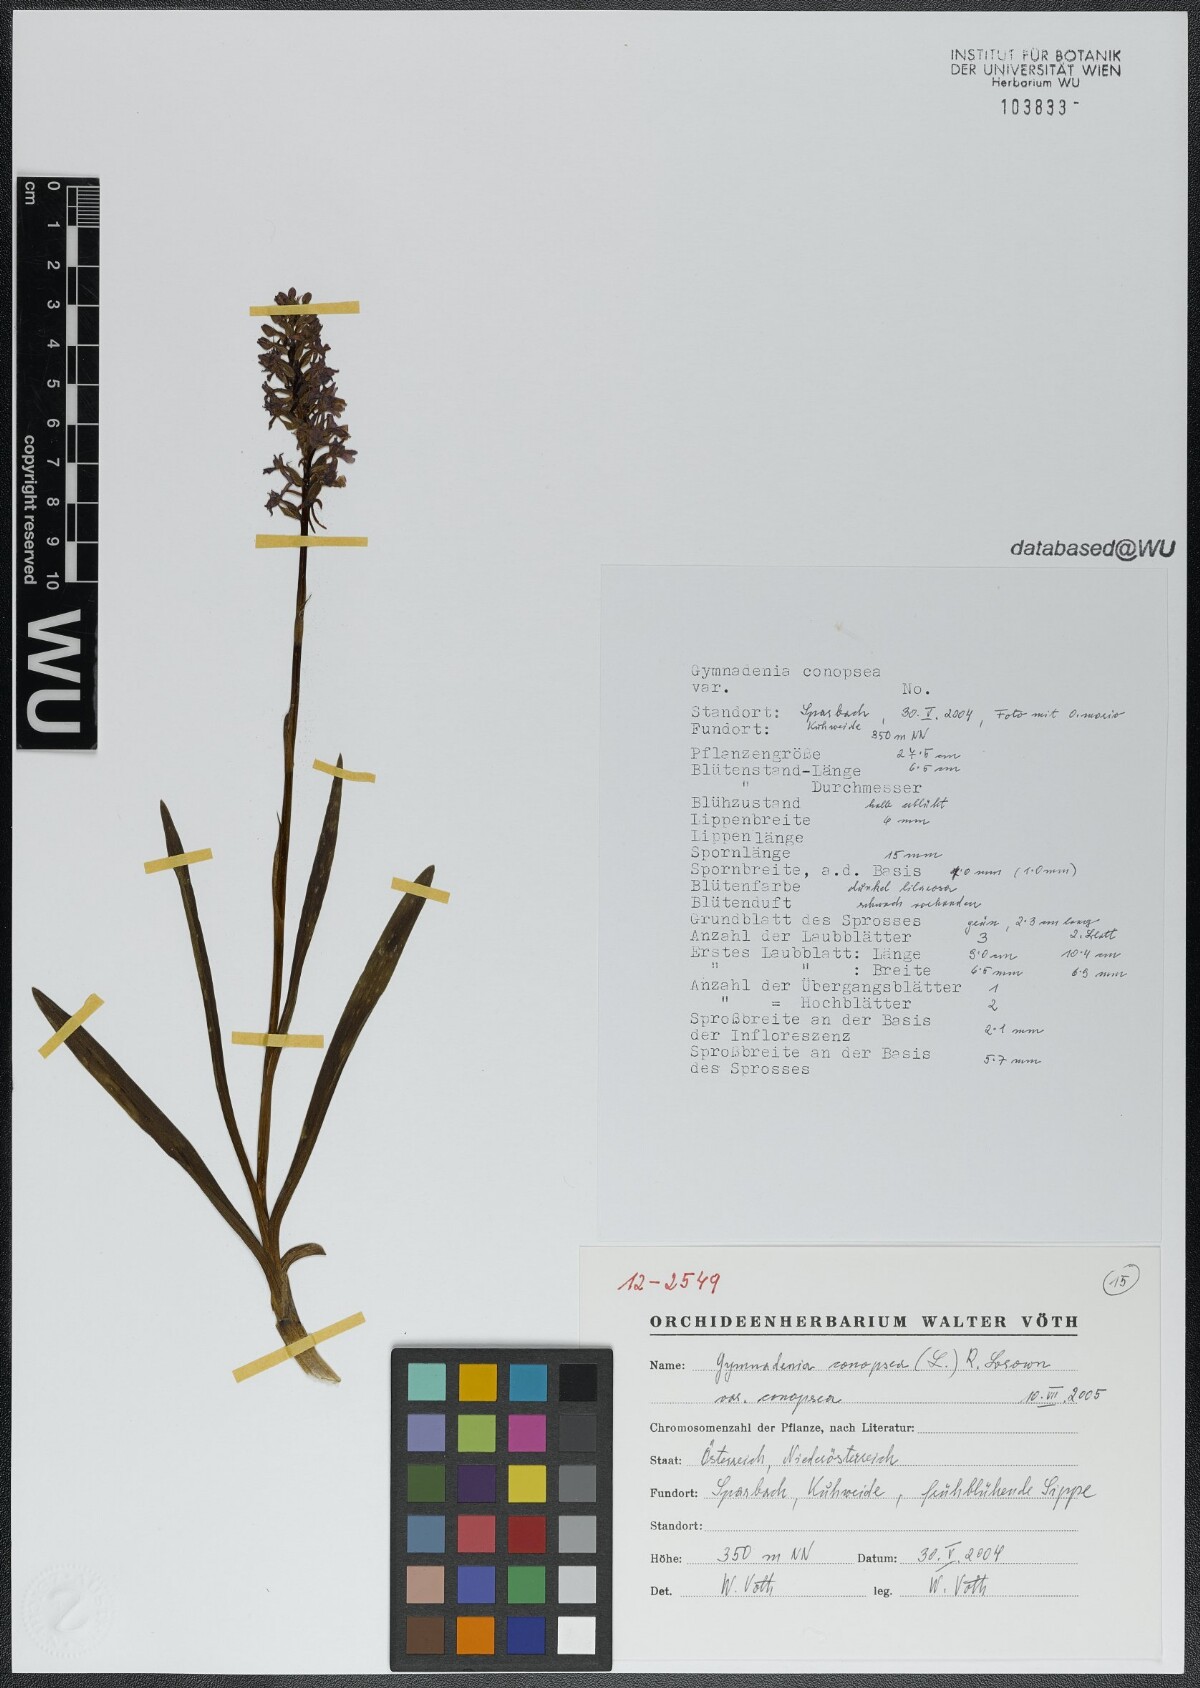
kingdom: Plantae
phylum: Tracheophyta
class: Liliopsida
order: Asparagales
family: Orchidaceae
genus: Gymnadenia
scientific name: Gymnadenia conopsea
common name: Fragrant orchid
